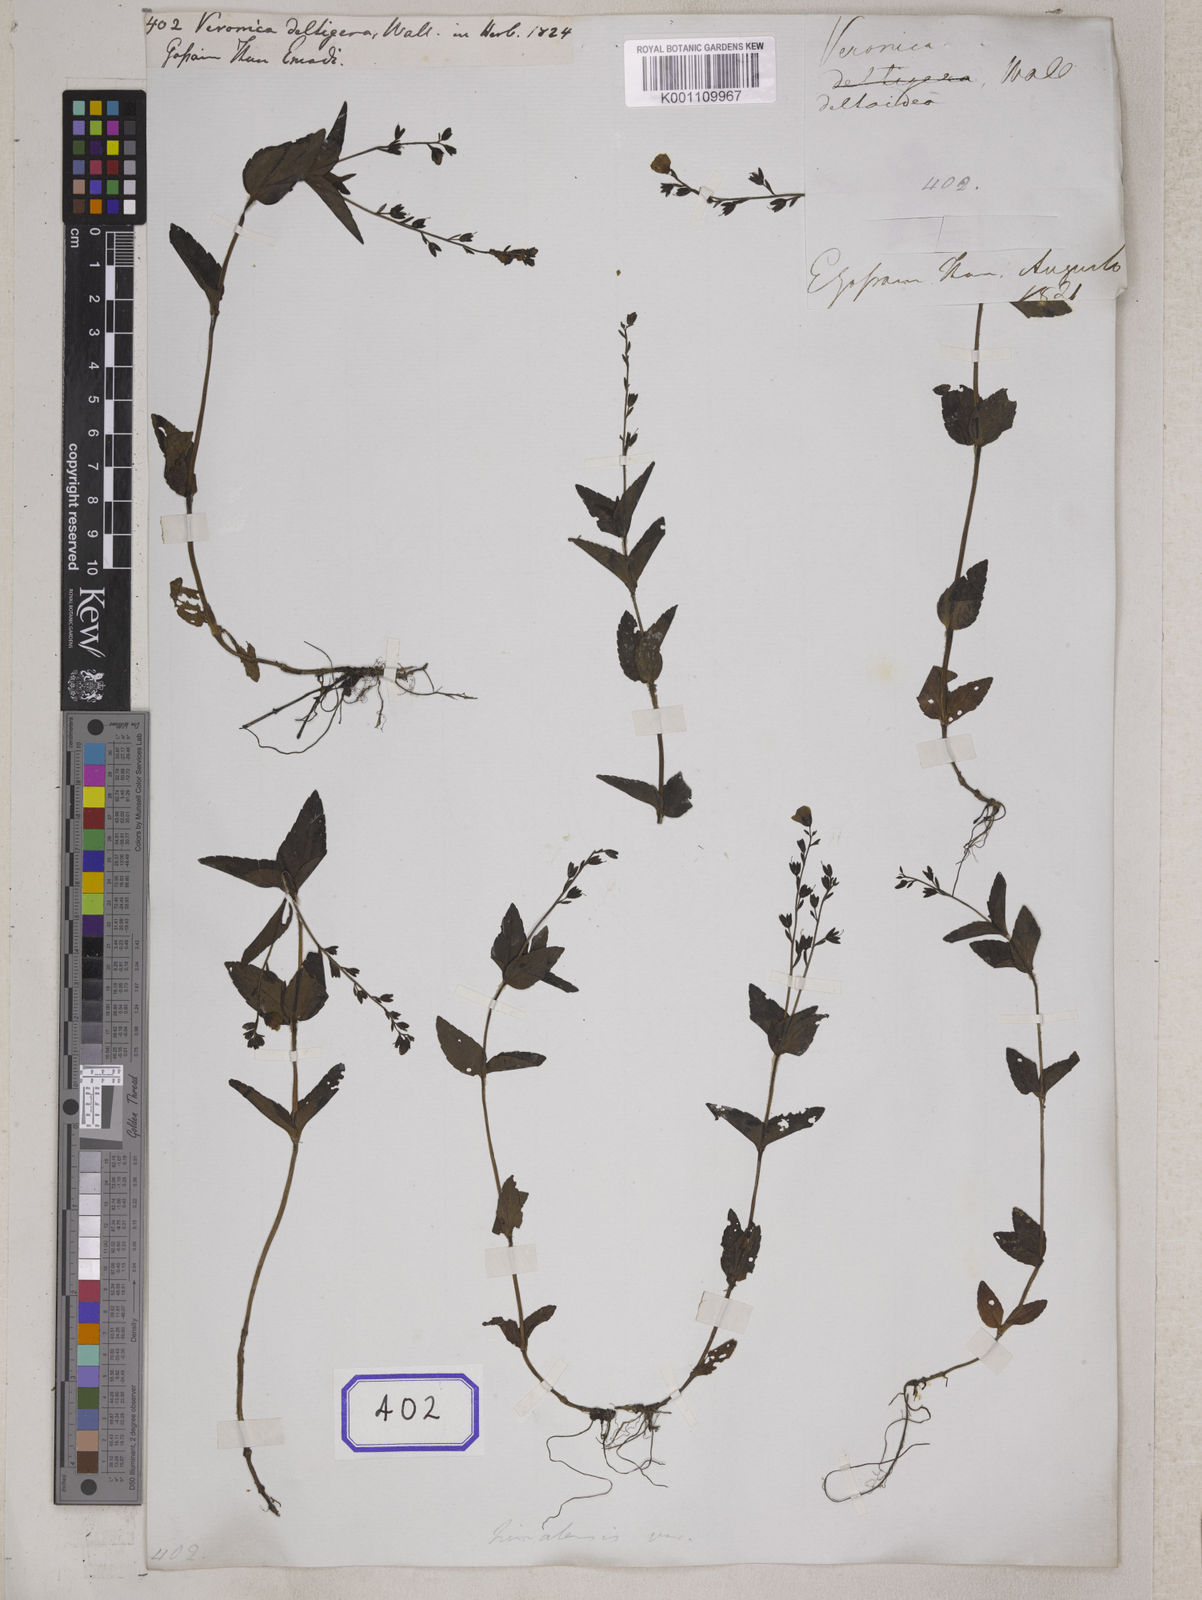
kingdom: Plantae
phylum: Tracheophyta
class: Magnoliopsida
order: Lamiales
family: Plantaginaceae
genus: Veronica
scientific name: Veronica
